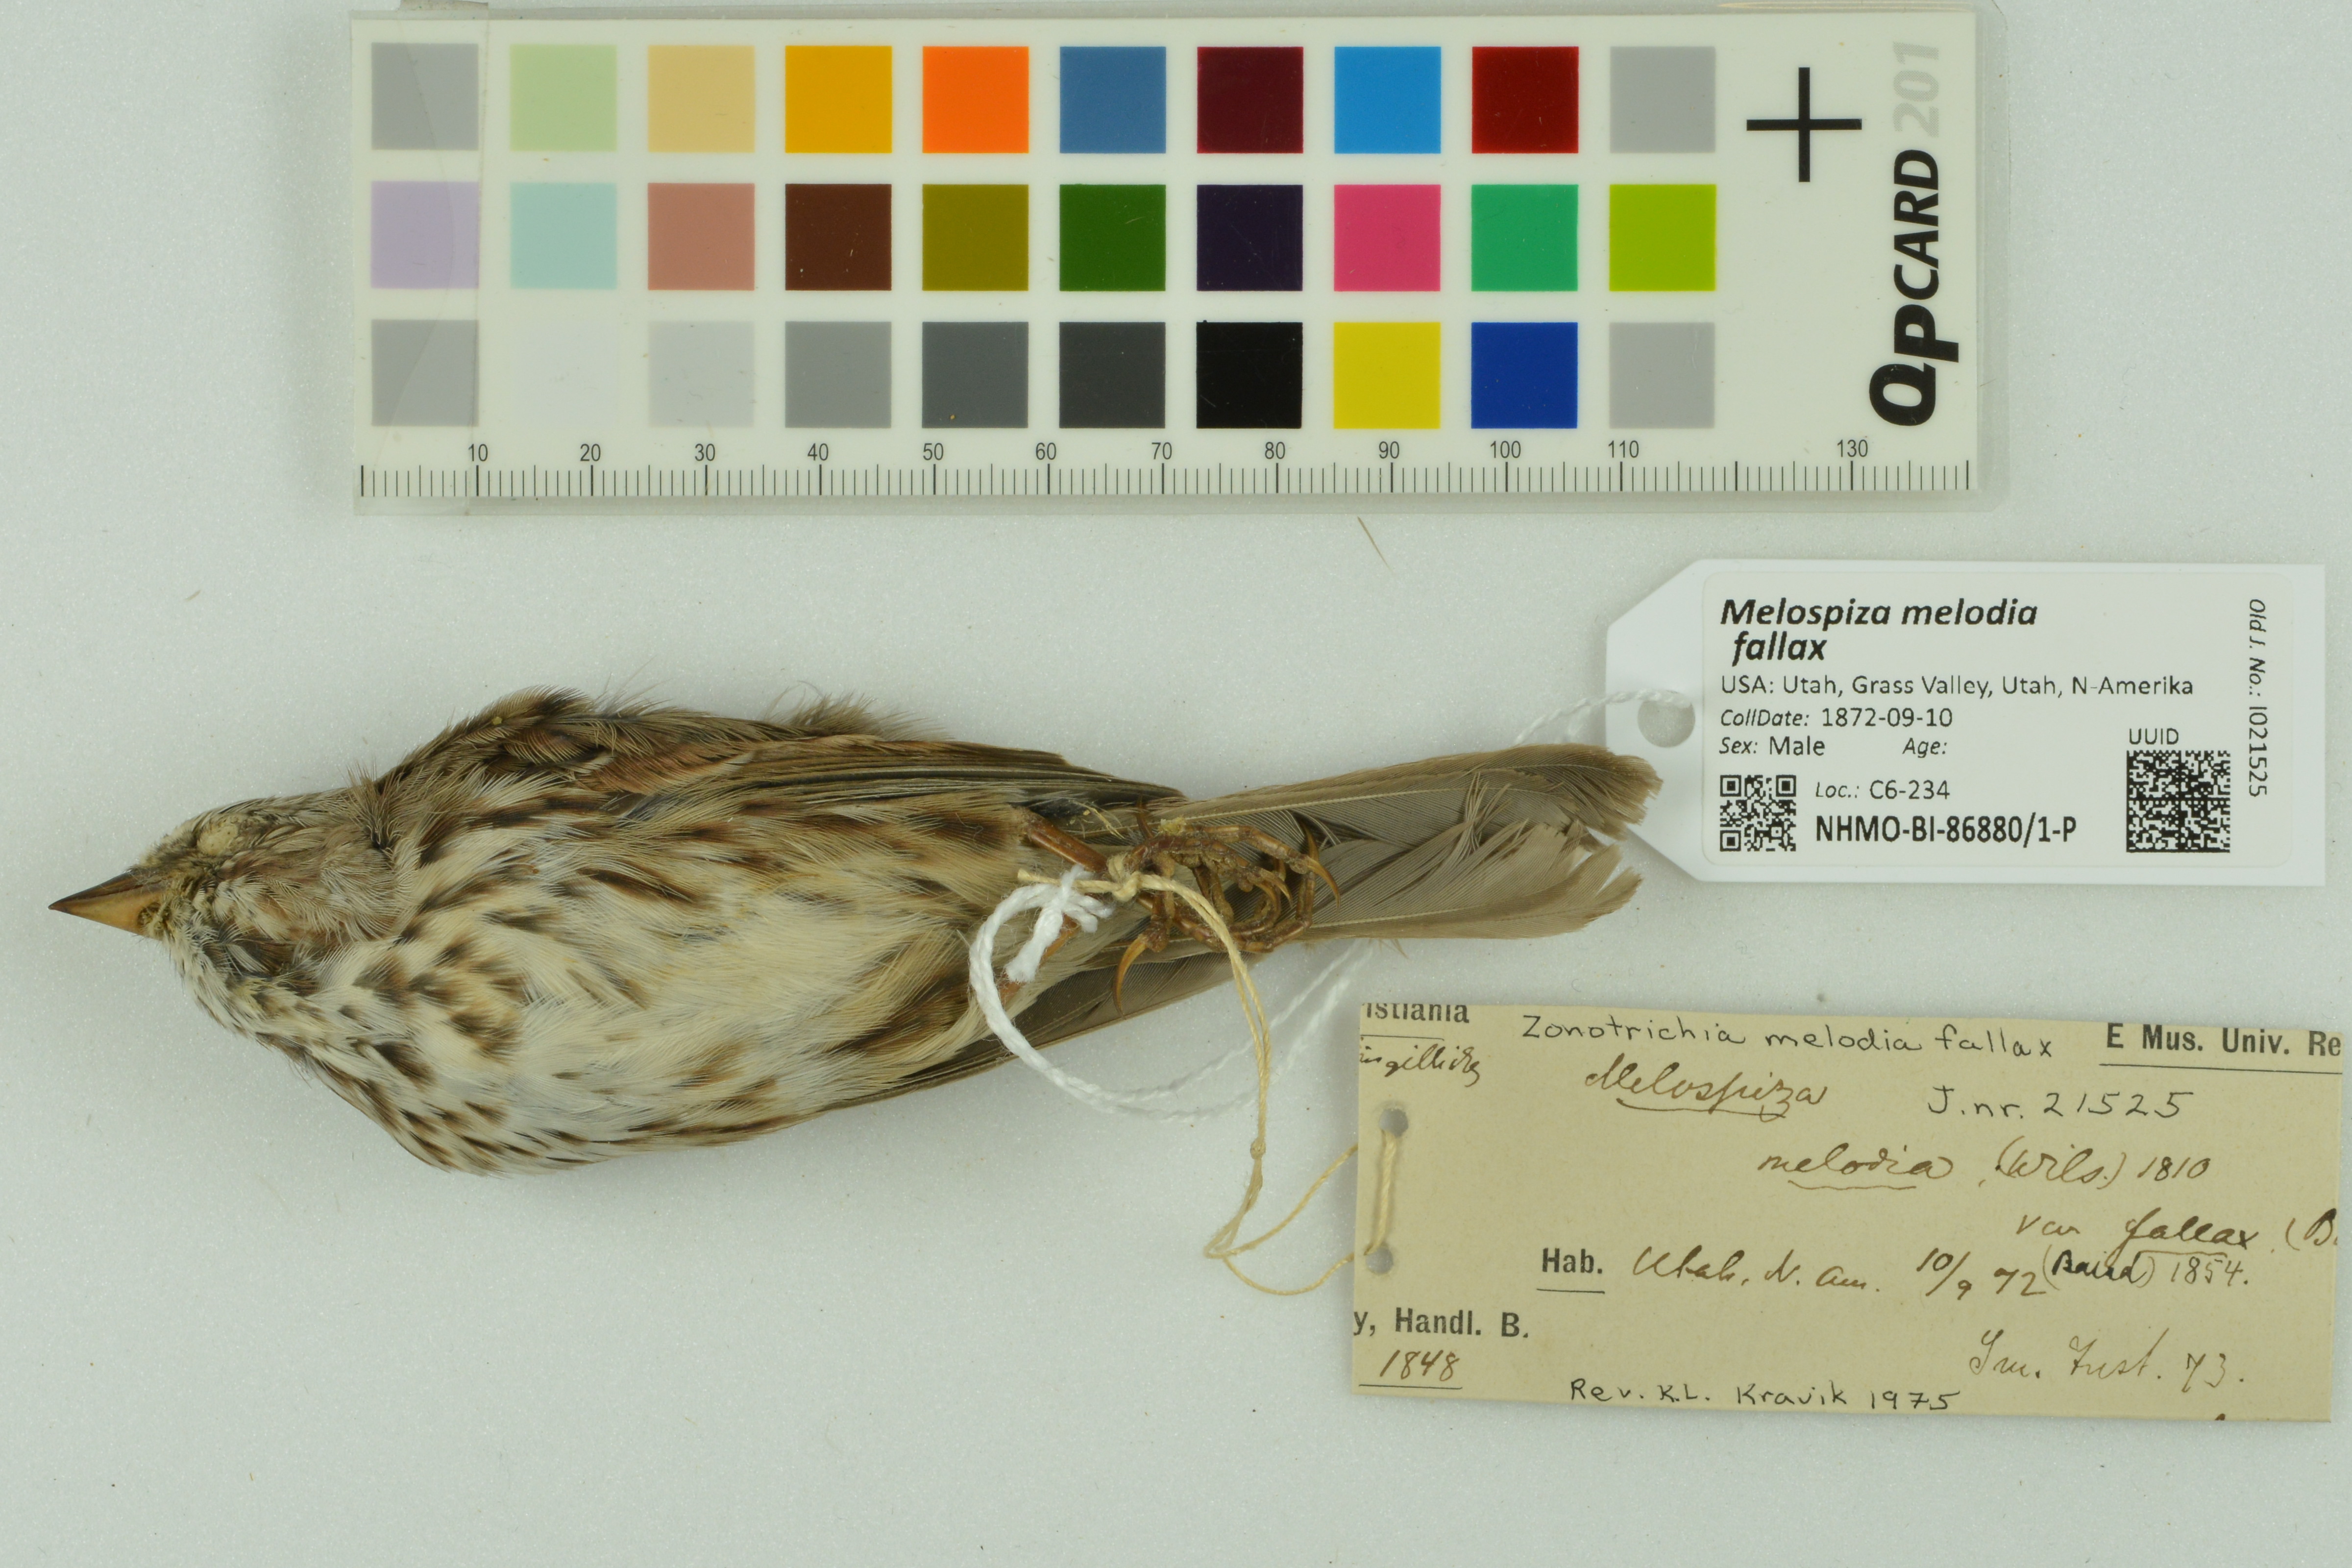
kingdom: Animalia
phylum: Chordata
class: Aves
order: Passeriformes
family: Passerellidae
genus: Melospiza
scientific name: Melospiza melodia
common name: Song sparrow
